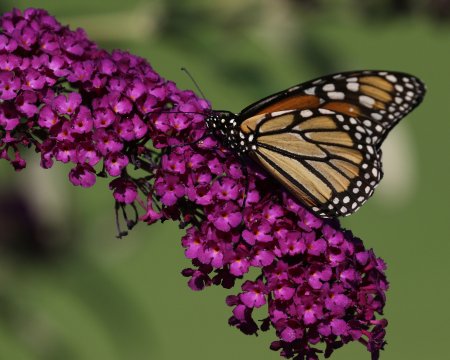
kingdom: Animalia
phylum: Arthropoda
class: Insecta
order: Lepidoptera
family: Nymphalidae
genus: Danaus
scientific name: Danaus plexippus
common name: Monarch
